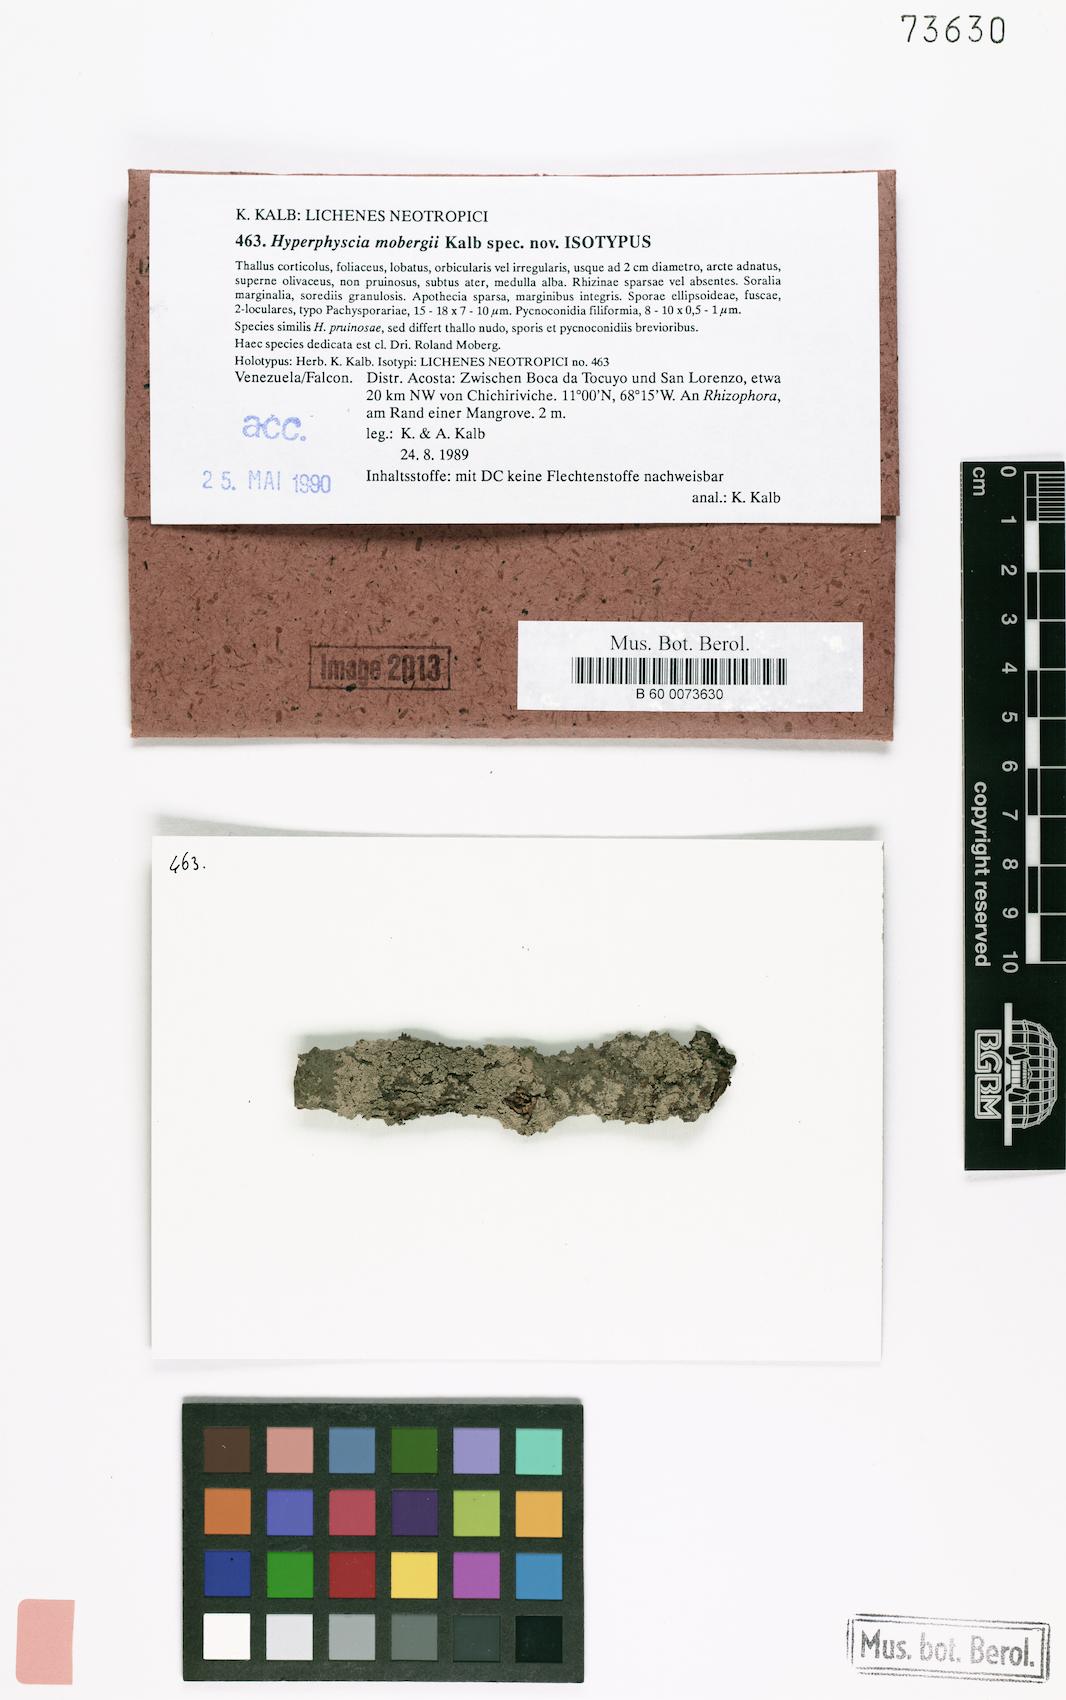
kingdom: Fungi
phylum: Ascomycota
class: Lecanoromycetes
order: Caliciales
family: Physciaceae
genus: Hyperphyscia
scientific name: Hyperphyscia mobergii
